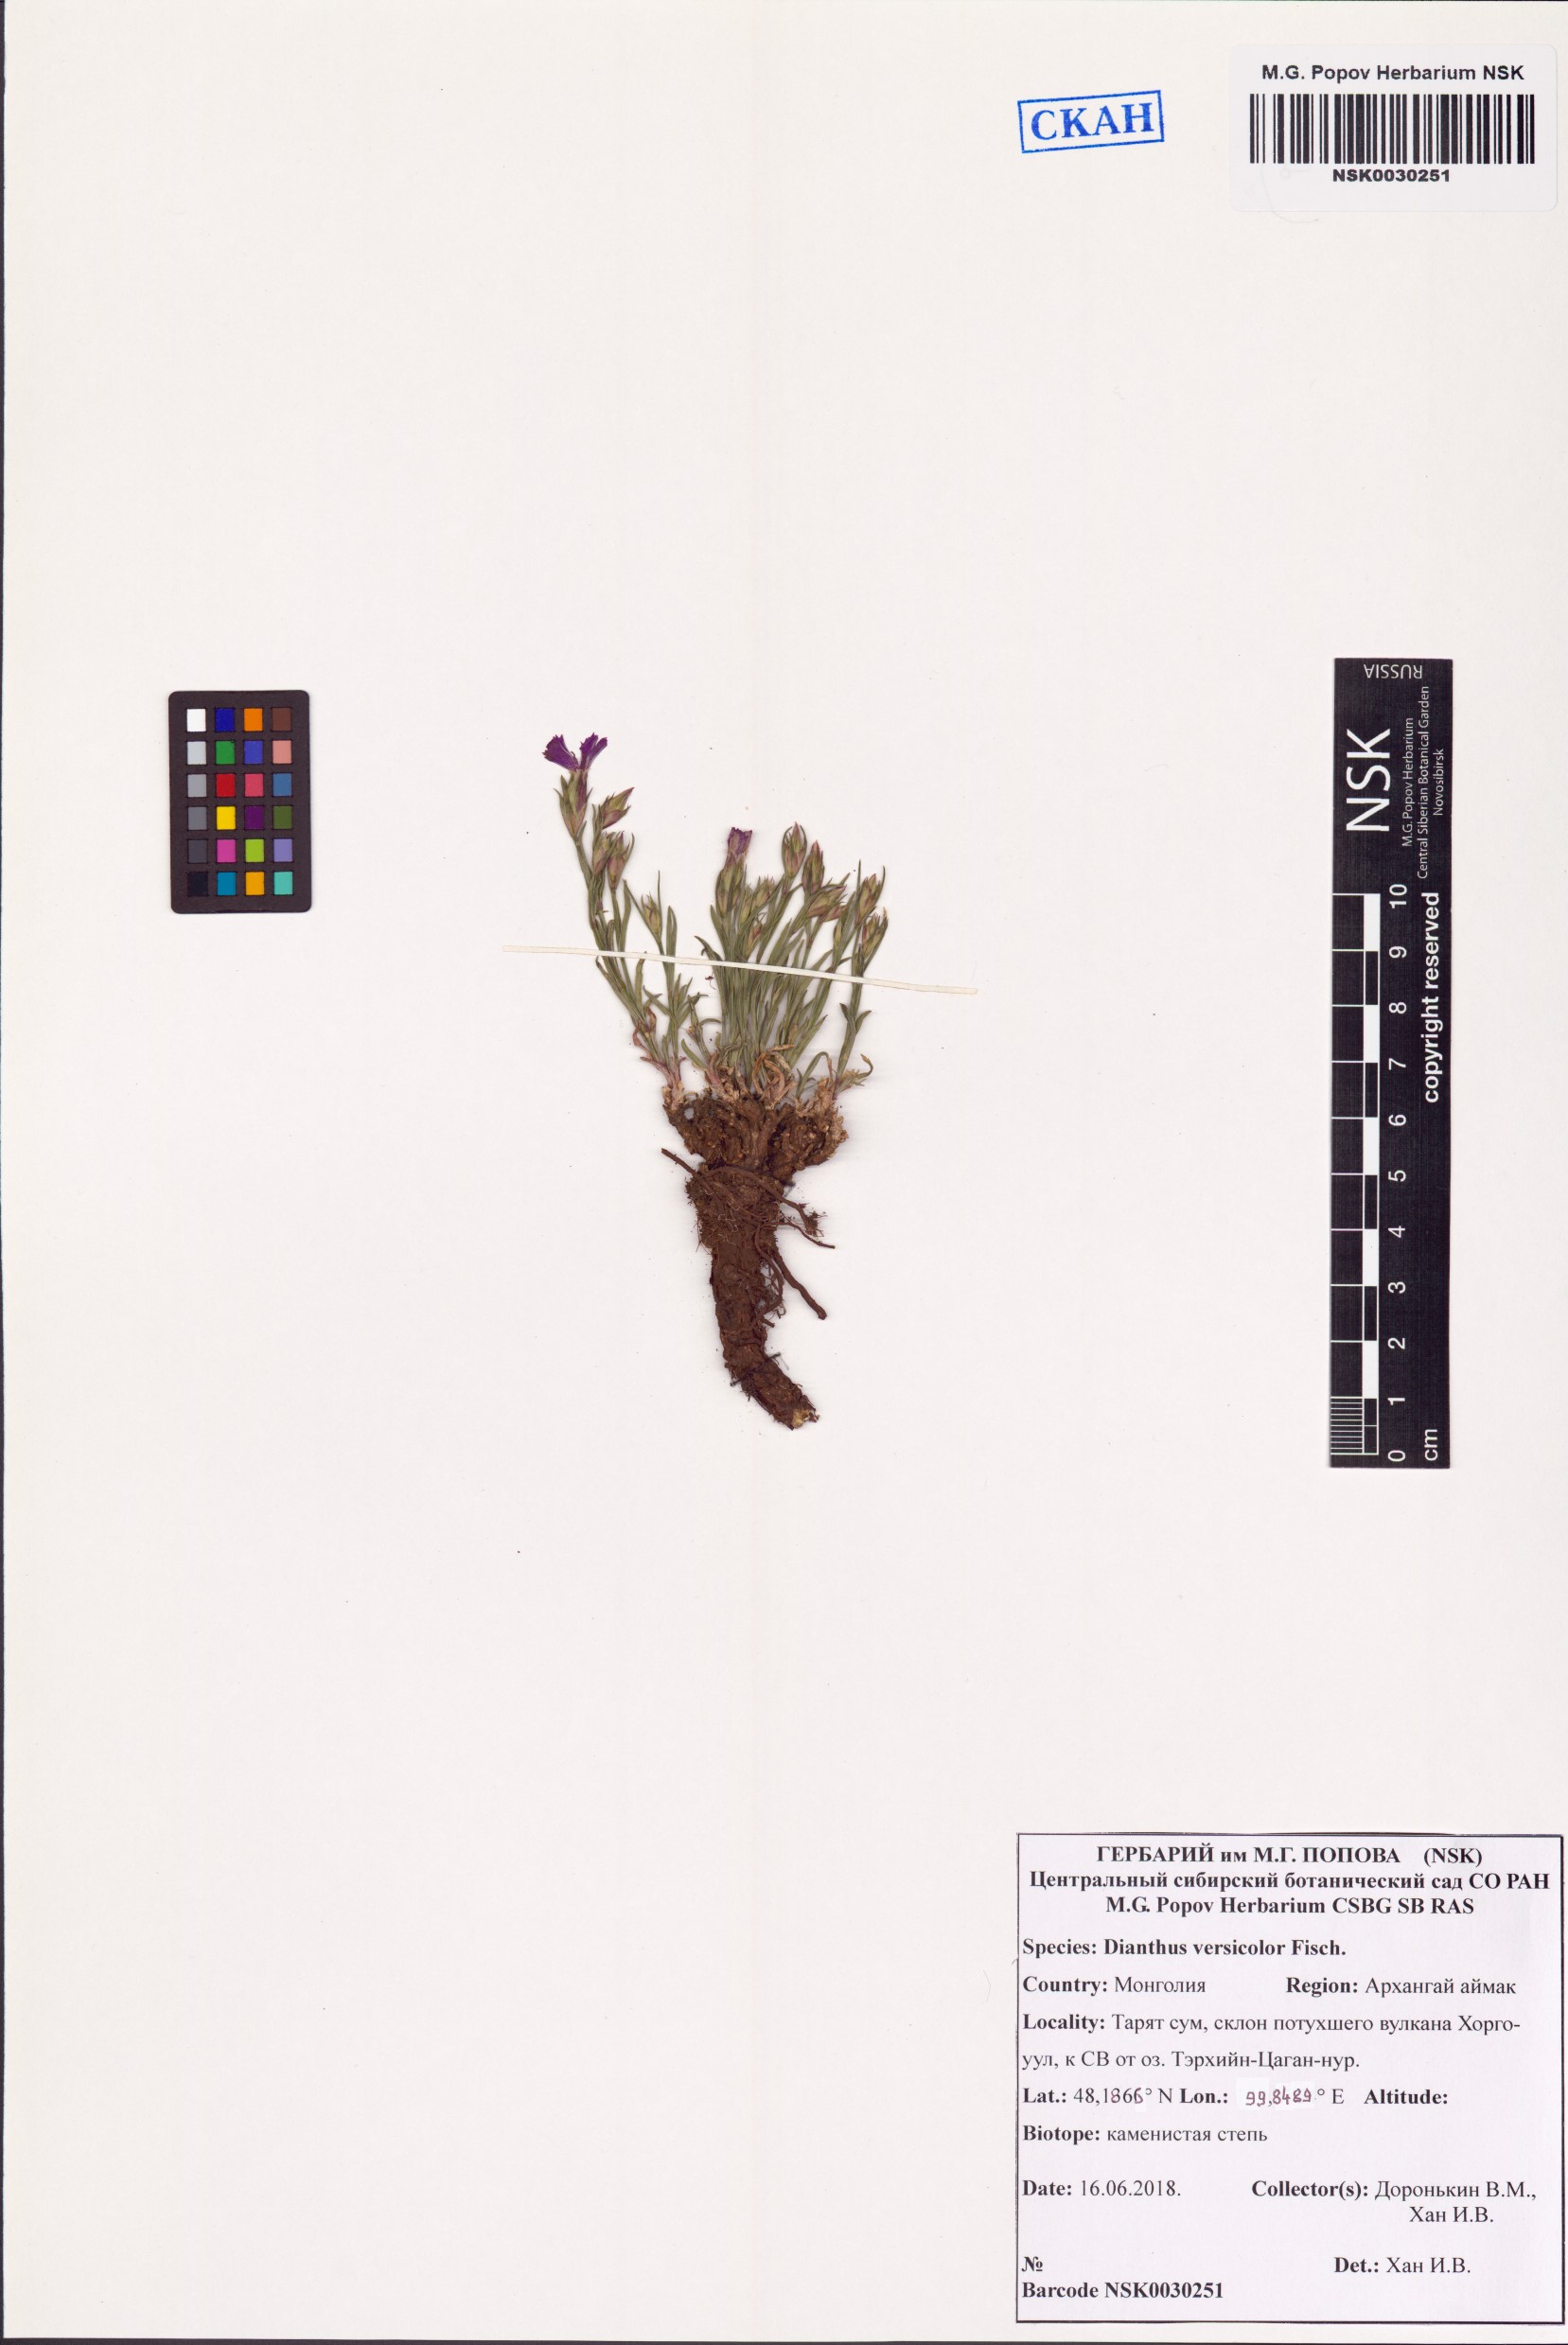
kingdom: Plantae
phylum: Tracheophyta
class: Magnoliopsida
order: Caryophyllales
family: Caryophyllaceae
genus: Dianthus
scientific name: Dianthus chinensis
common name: Rainbow pink
